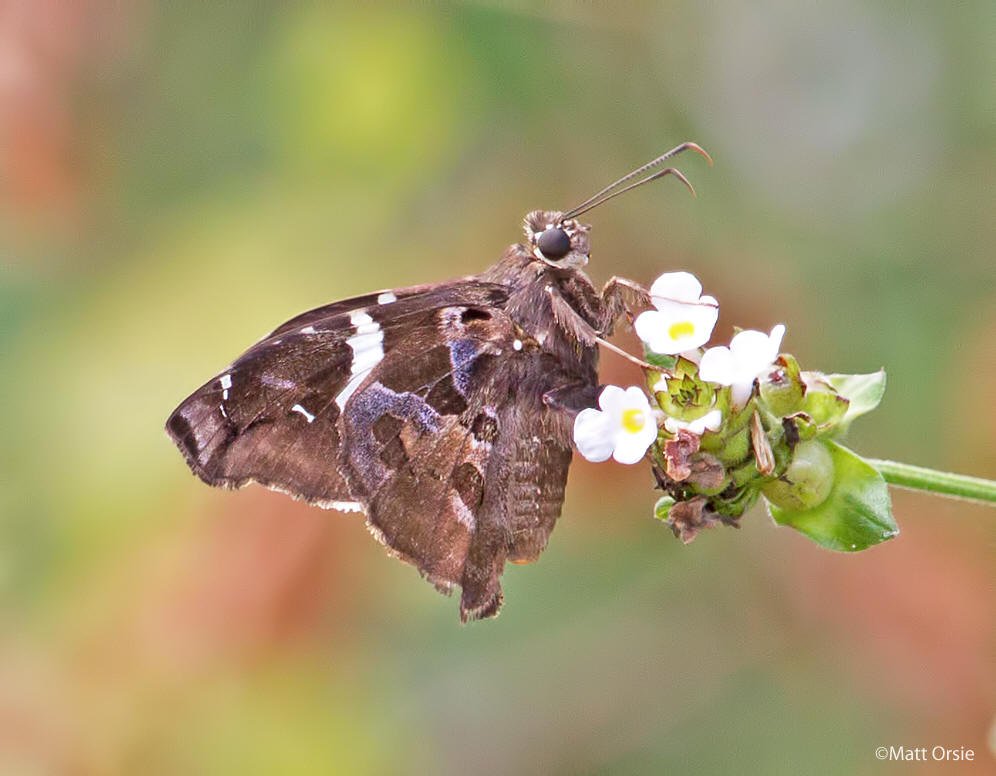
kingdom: Animalia
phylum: Arthropoda
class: Insecta
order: Lepidoptera
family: Hesperiidae
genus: Spathilepia
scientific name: Spathilepia clonius
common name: Falcate Skipper
